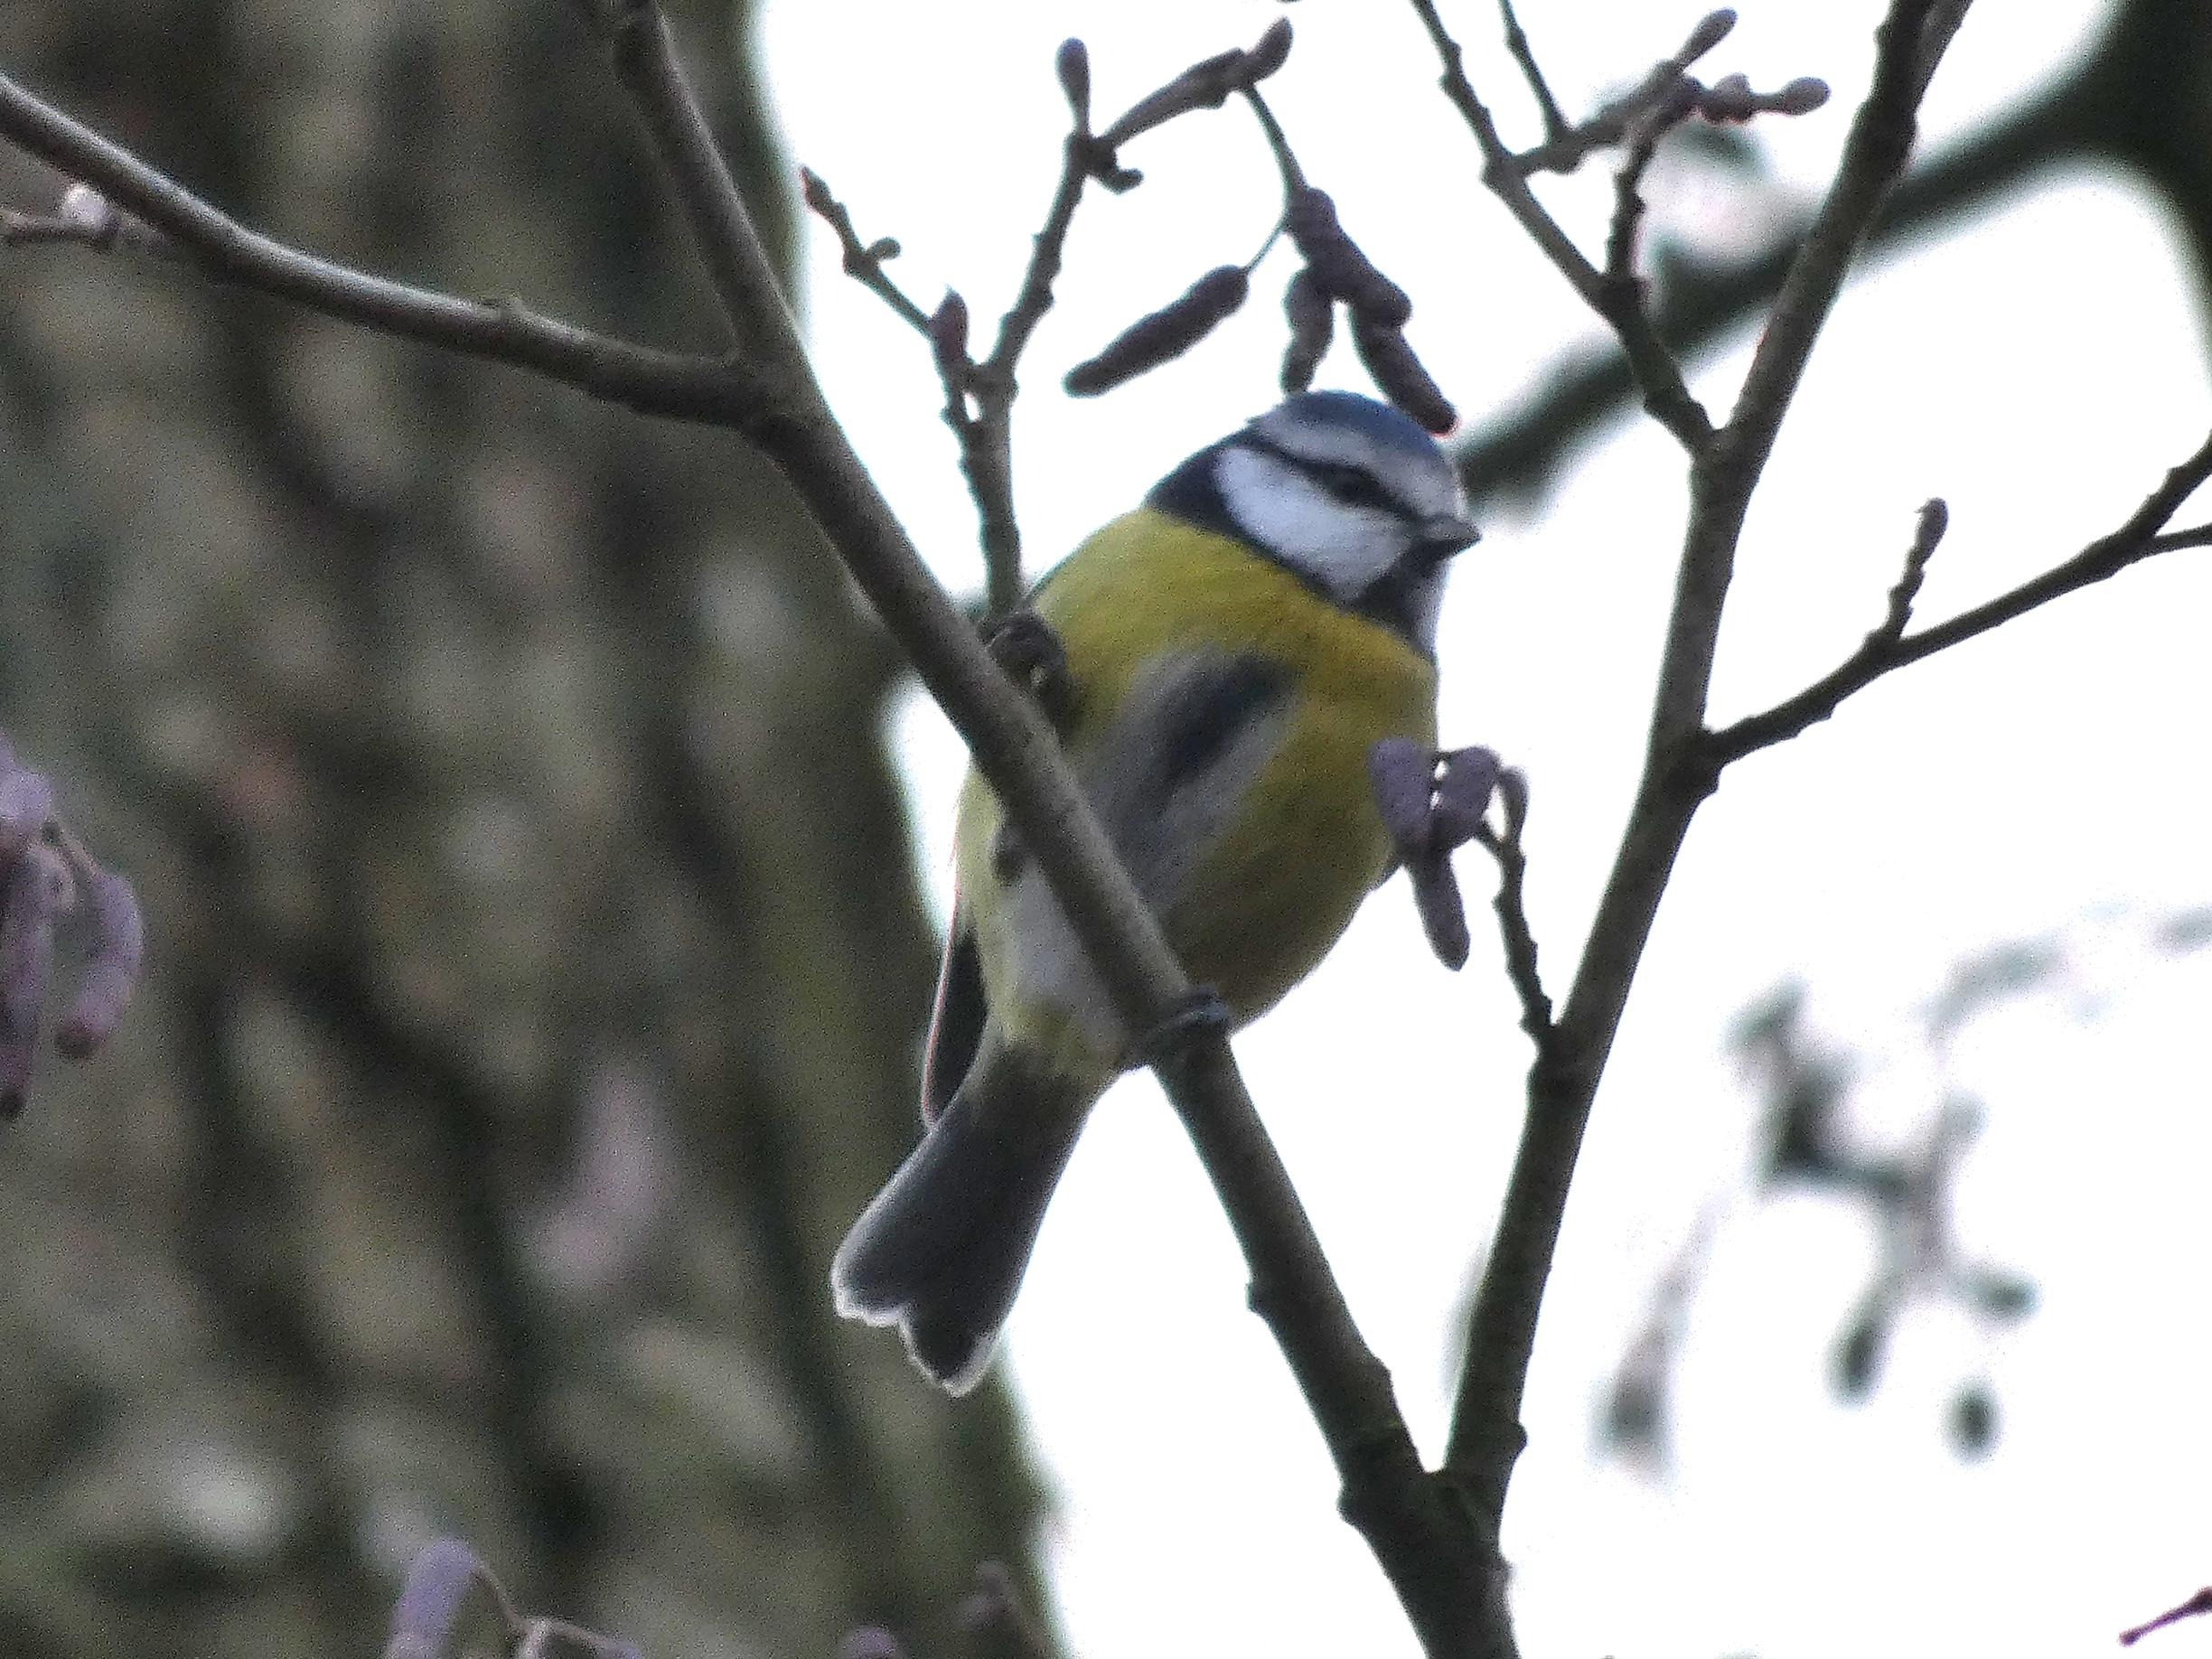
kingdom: Animalia
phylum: Chordata
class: Aves
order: Passeriformes
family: Paridae
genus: Cyanistes
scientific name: Cyanistes caeruleus
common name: Blåmejse
